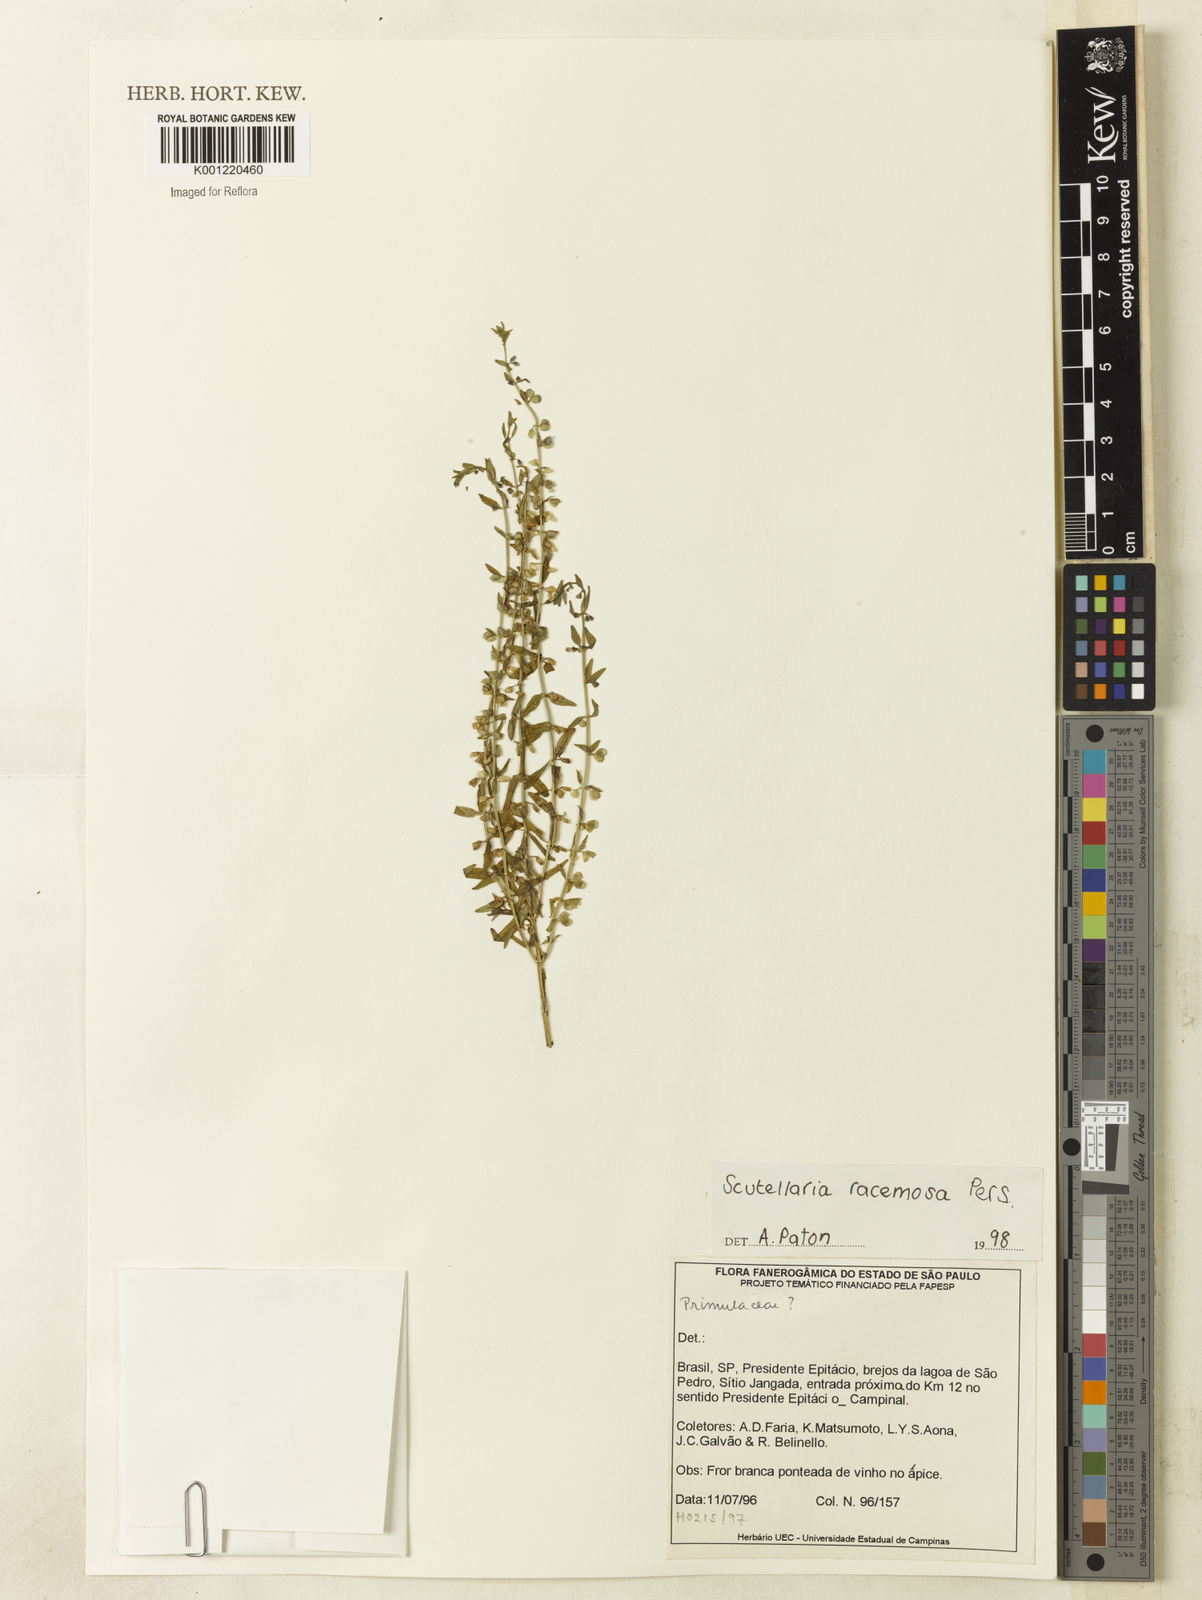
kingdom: Plantae
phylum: Tracheophyta
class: Magnoliopsida
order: Lamiales
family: Lamiaceae
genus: Scutellaria
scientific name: Scutellaria racemosa
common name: South american skullcap
